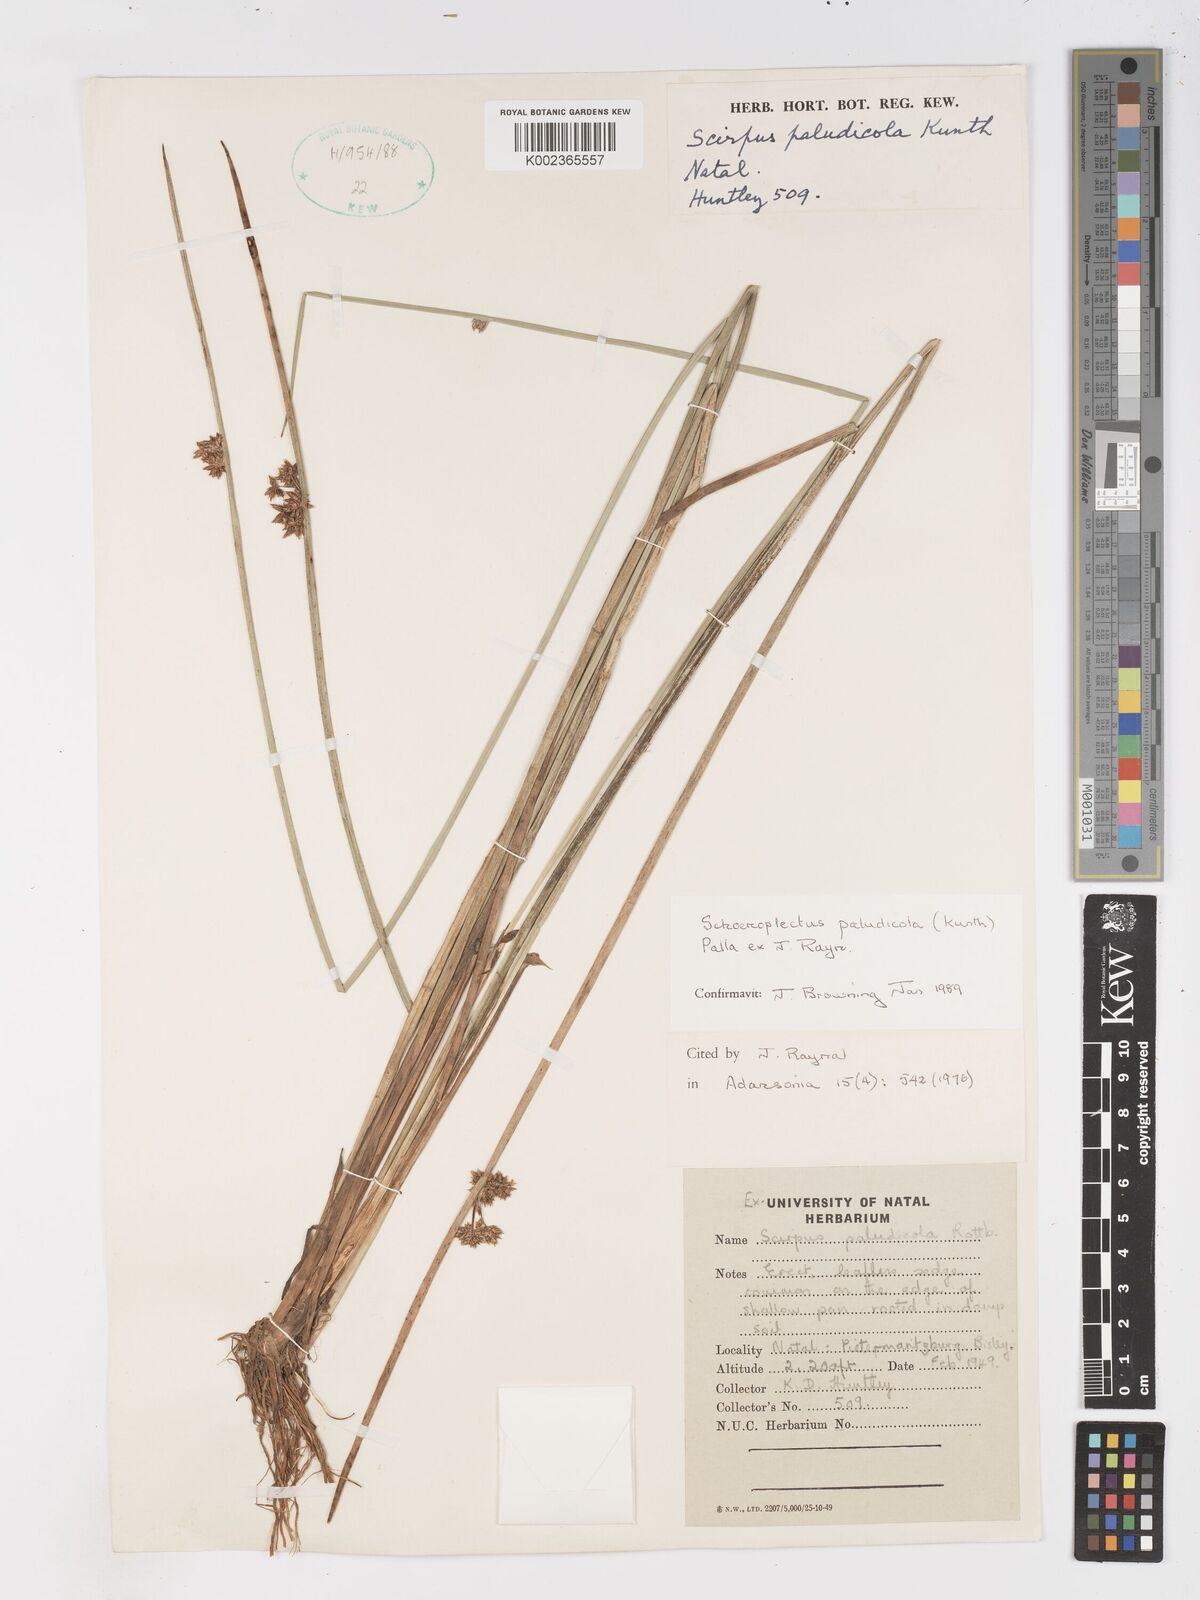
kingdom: Plantae
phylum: Tracheophyta
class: Liliopsida
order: Poales
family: Cyperaceae
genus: Schoenoplectiella
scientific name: Schoenoplectiella paludicola
